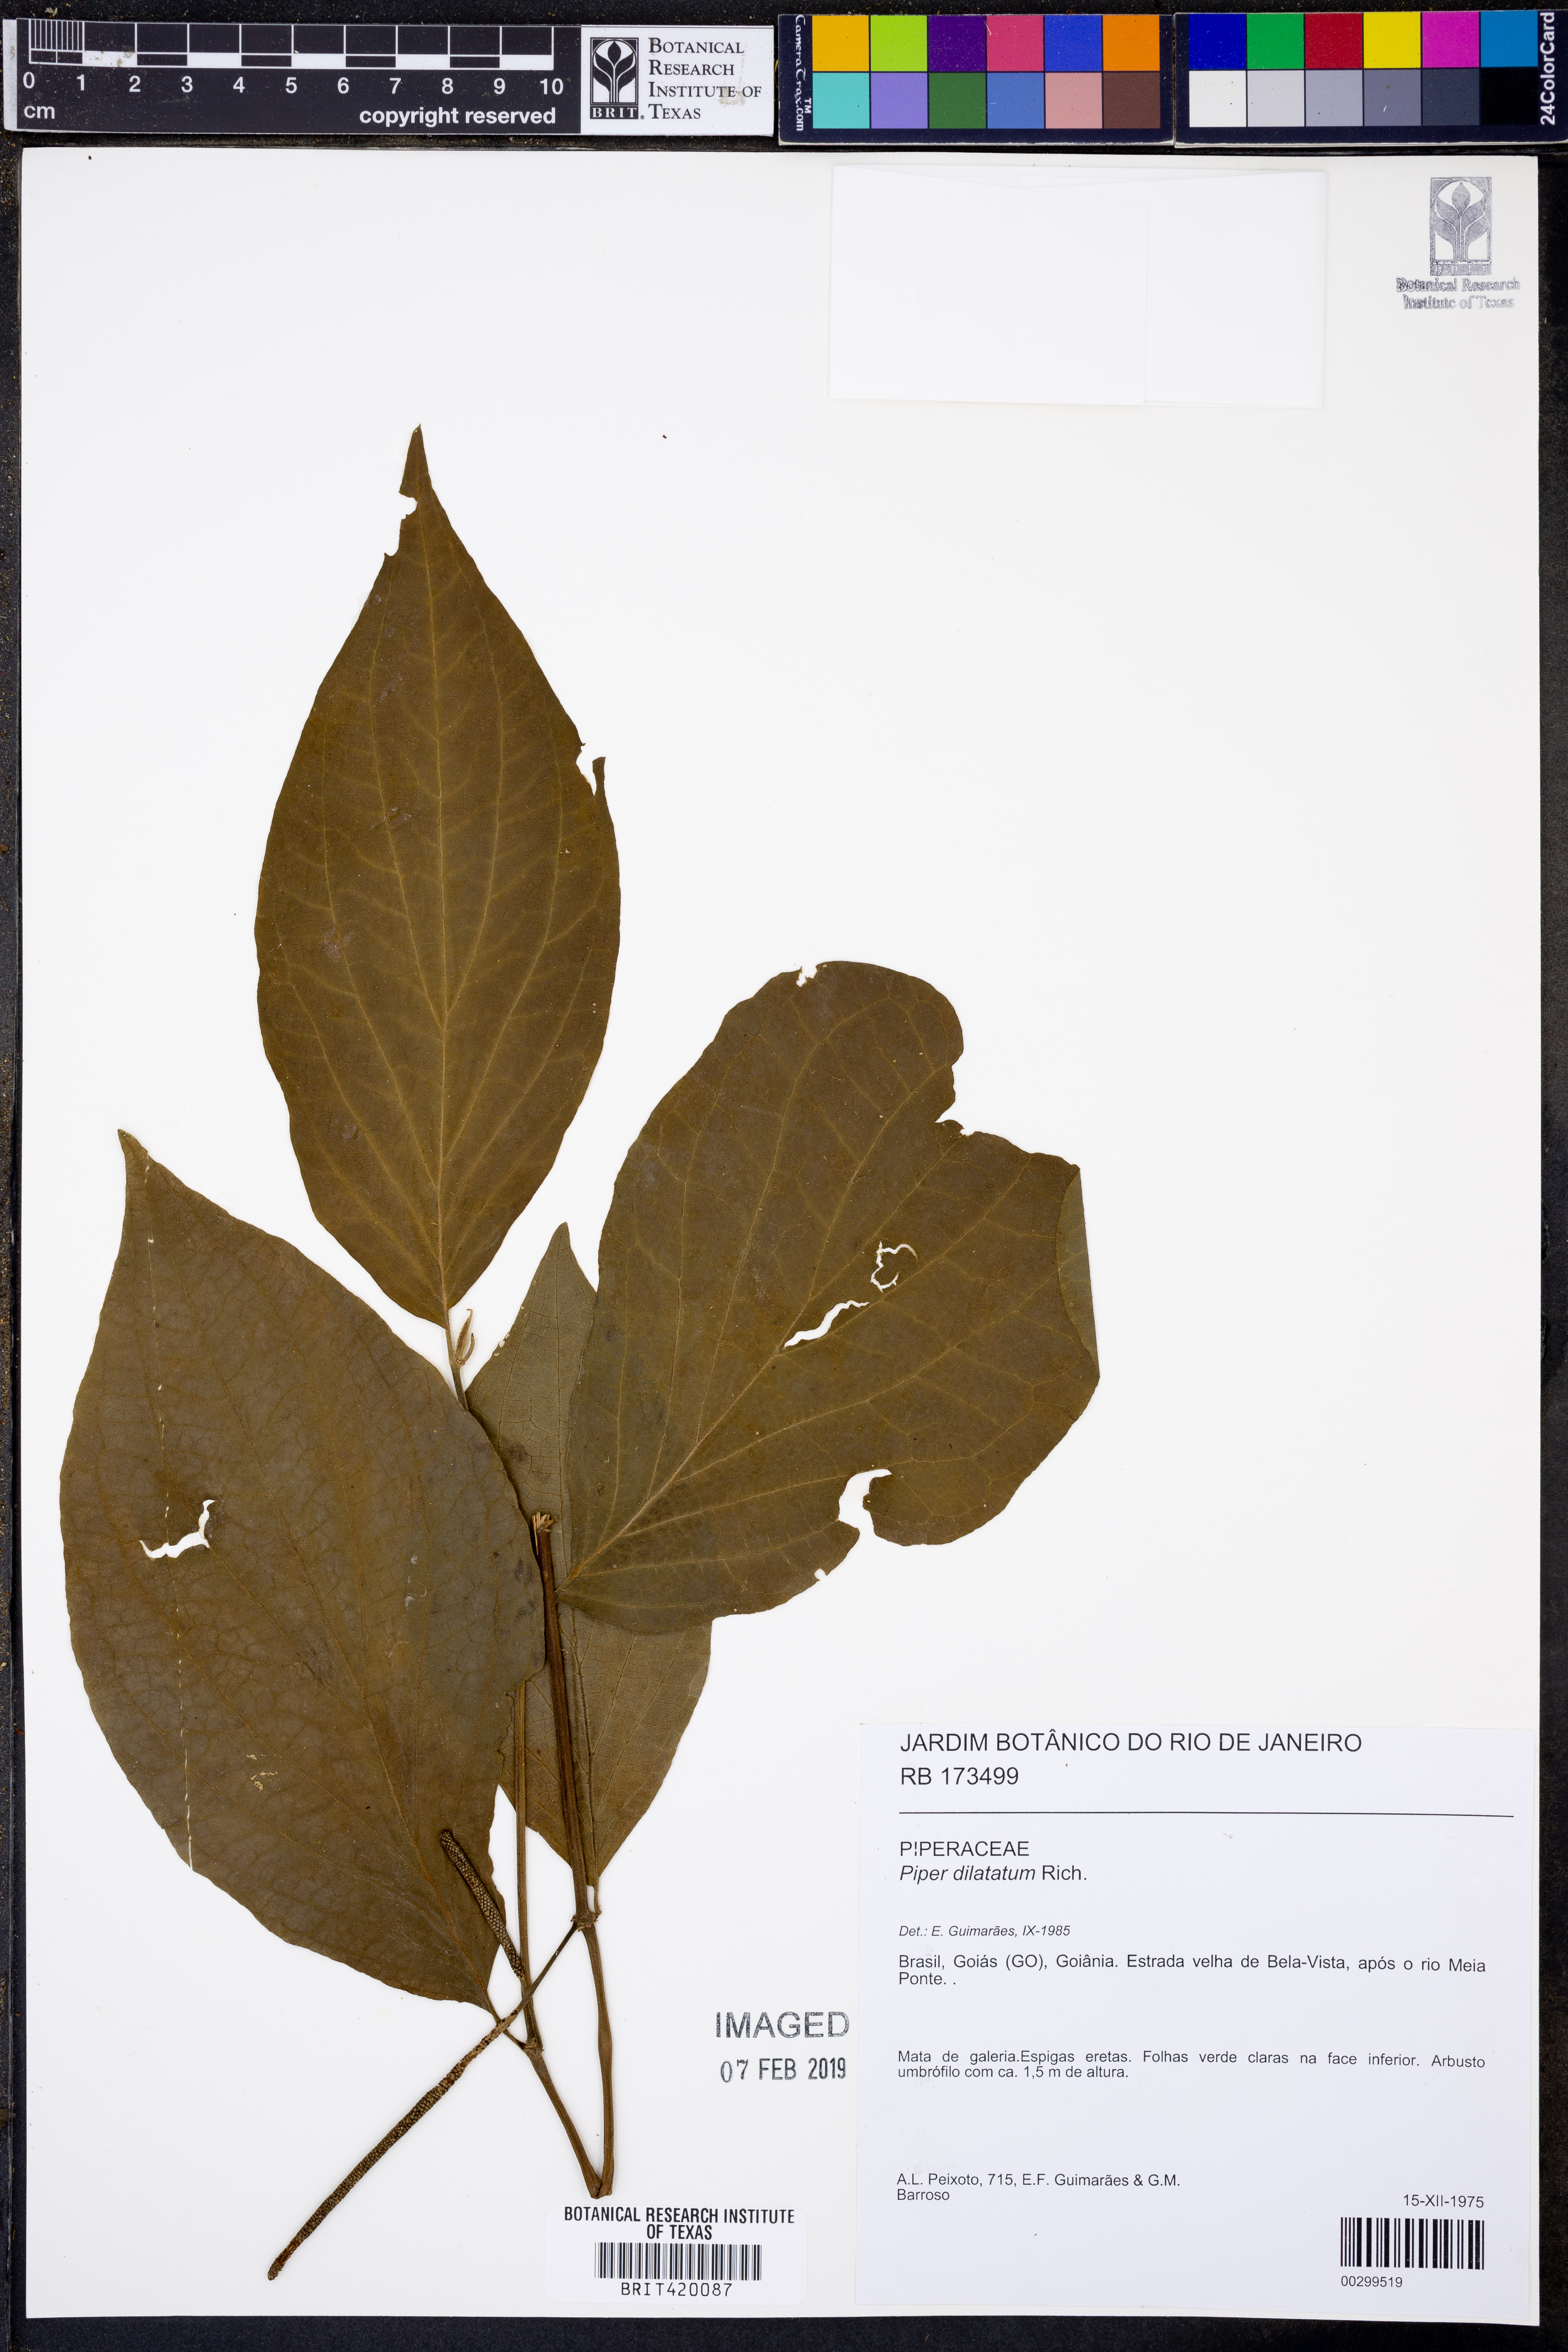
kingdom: Plantae
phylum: Tracheophyta
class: Magnoliopsida
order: Piperales
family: Piperaceae
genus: Piper
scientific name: Piper dilatatum
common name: Higuillo
